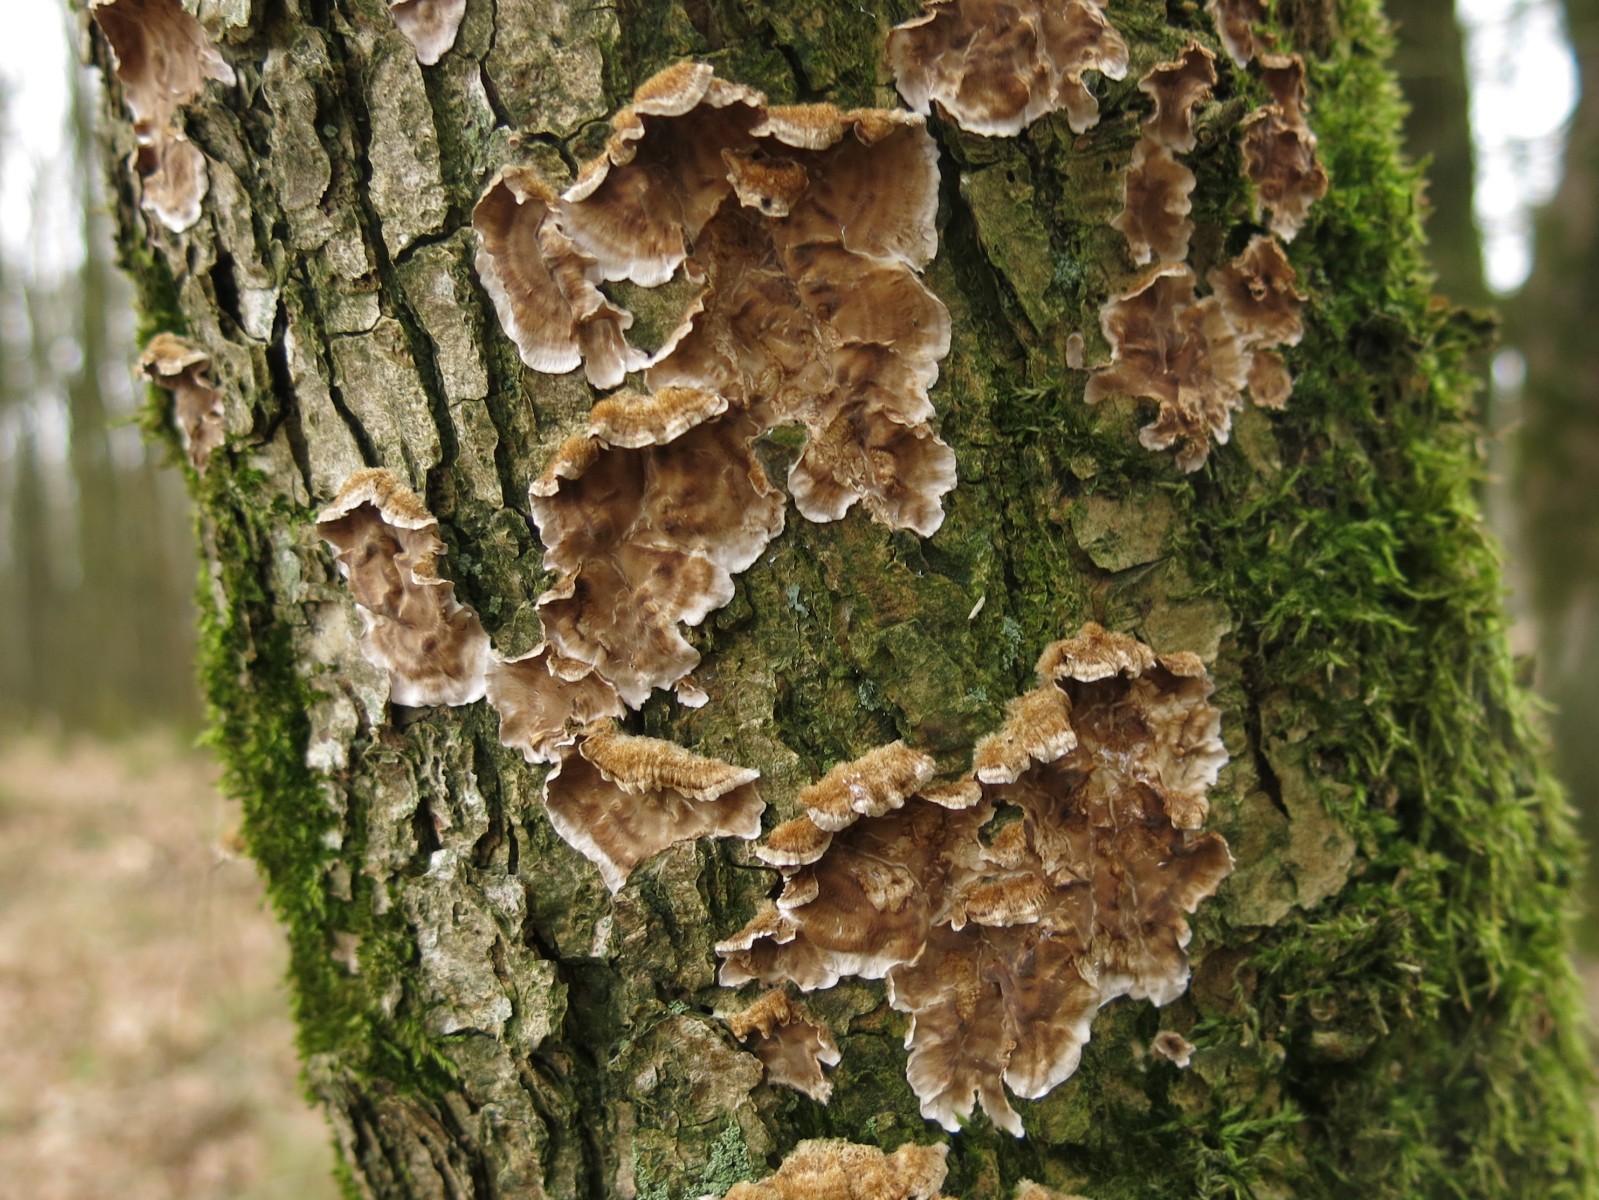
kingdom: Fungi
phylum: Basidiomycota
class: Agaricomycetes
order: Russulales
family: Stereaceae
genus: Stereum
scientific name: Stereum hirsutum
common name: håret lædersvamp
